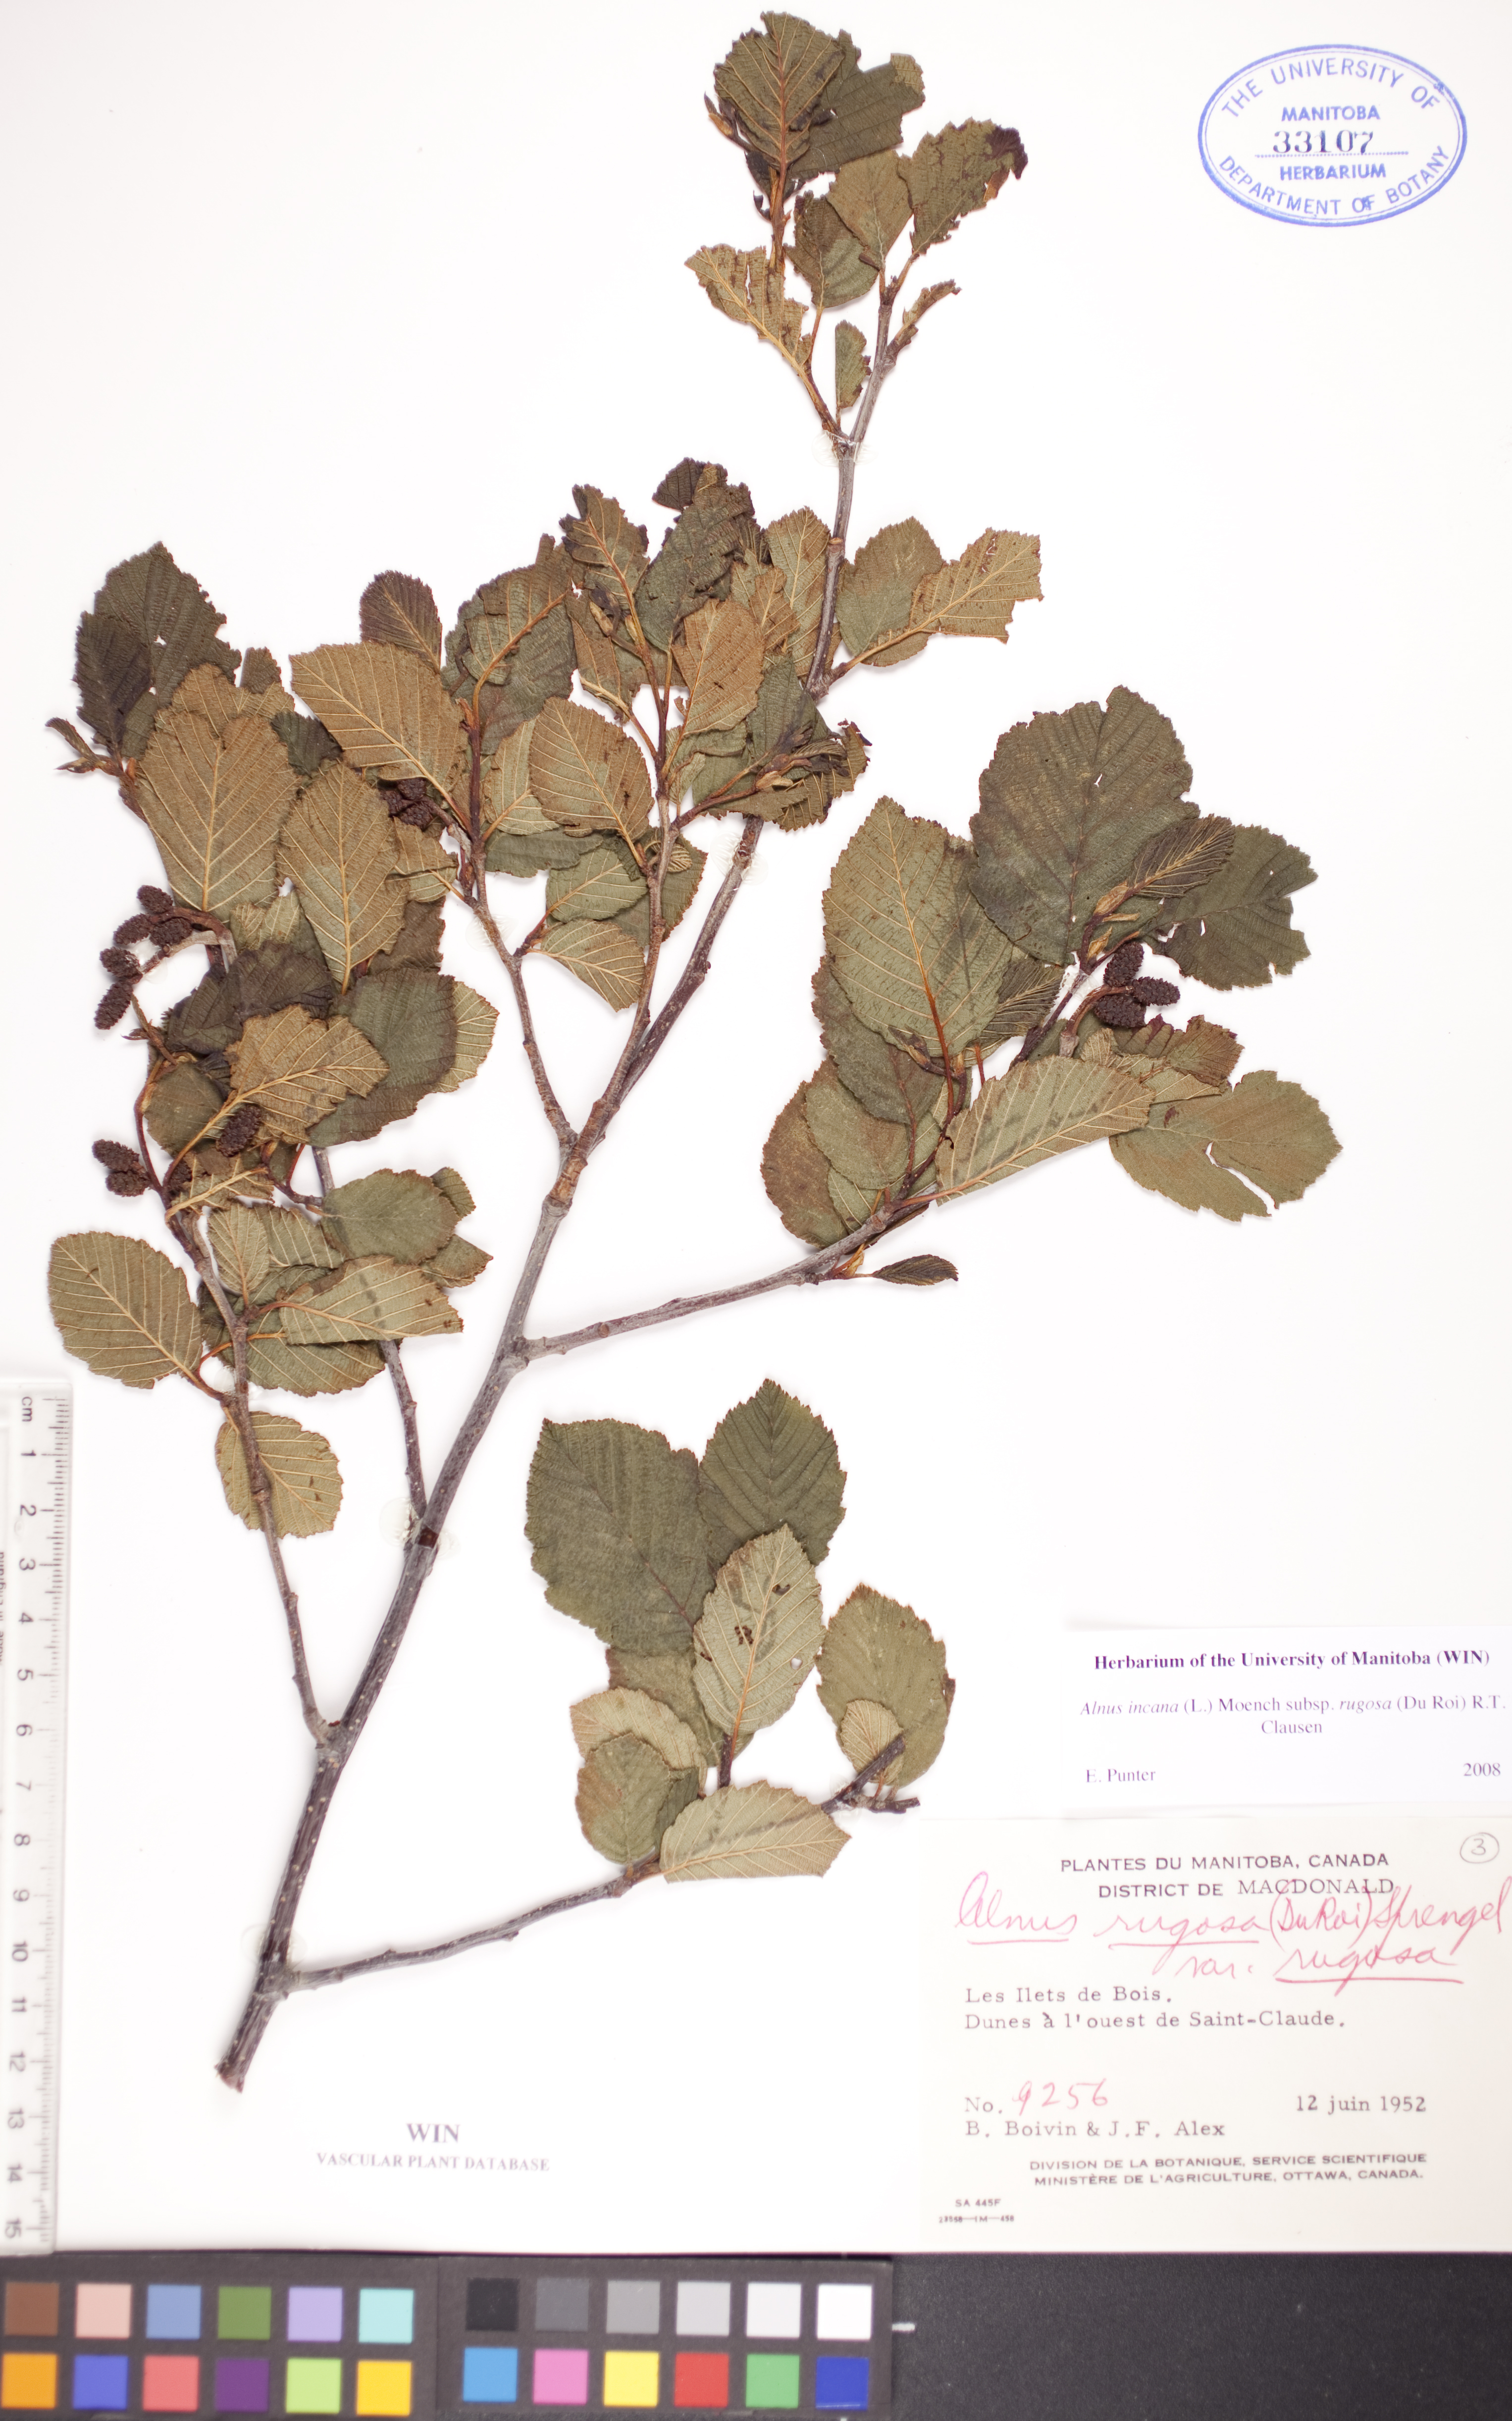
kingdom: Plantae
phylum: Tracheophyta
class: Magnoliopsida
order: Fagales
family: Betulaceae
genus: Alnus
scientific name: Alnus incana
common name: Grey alder
